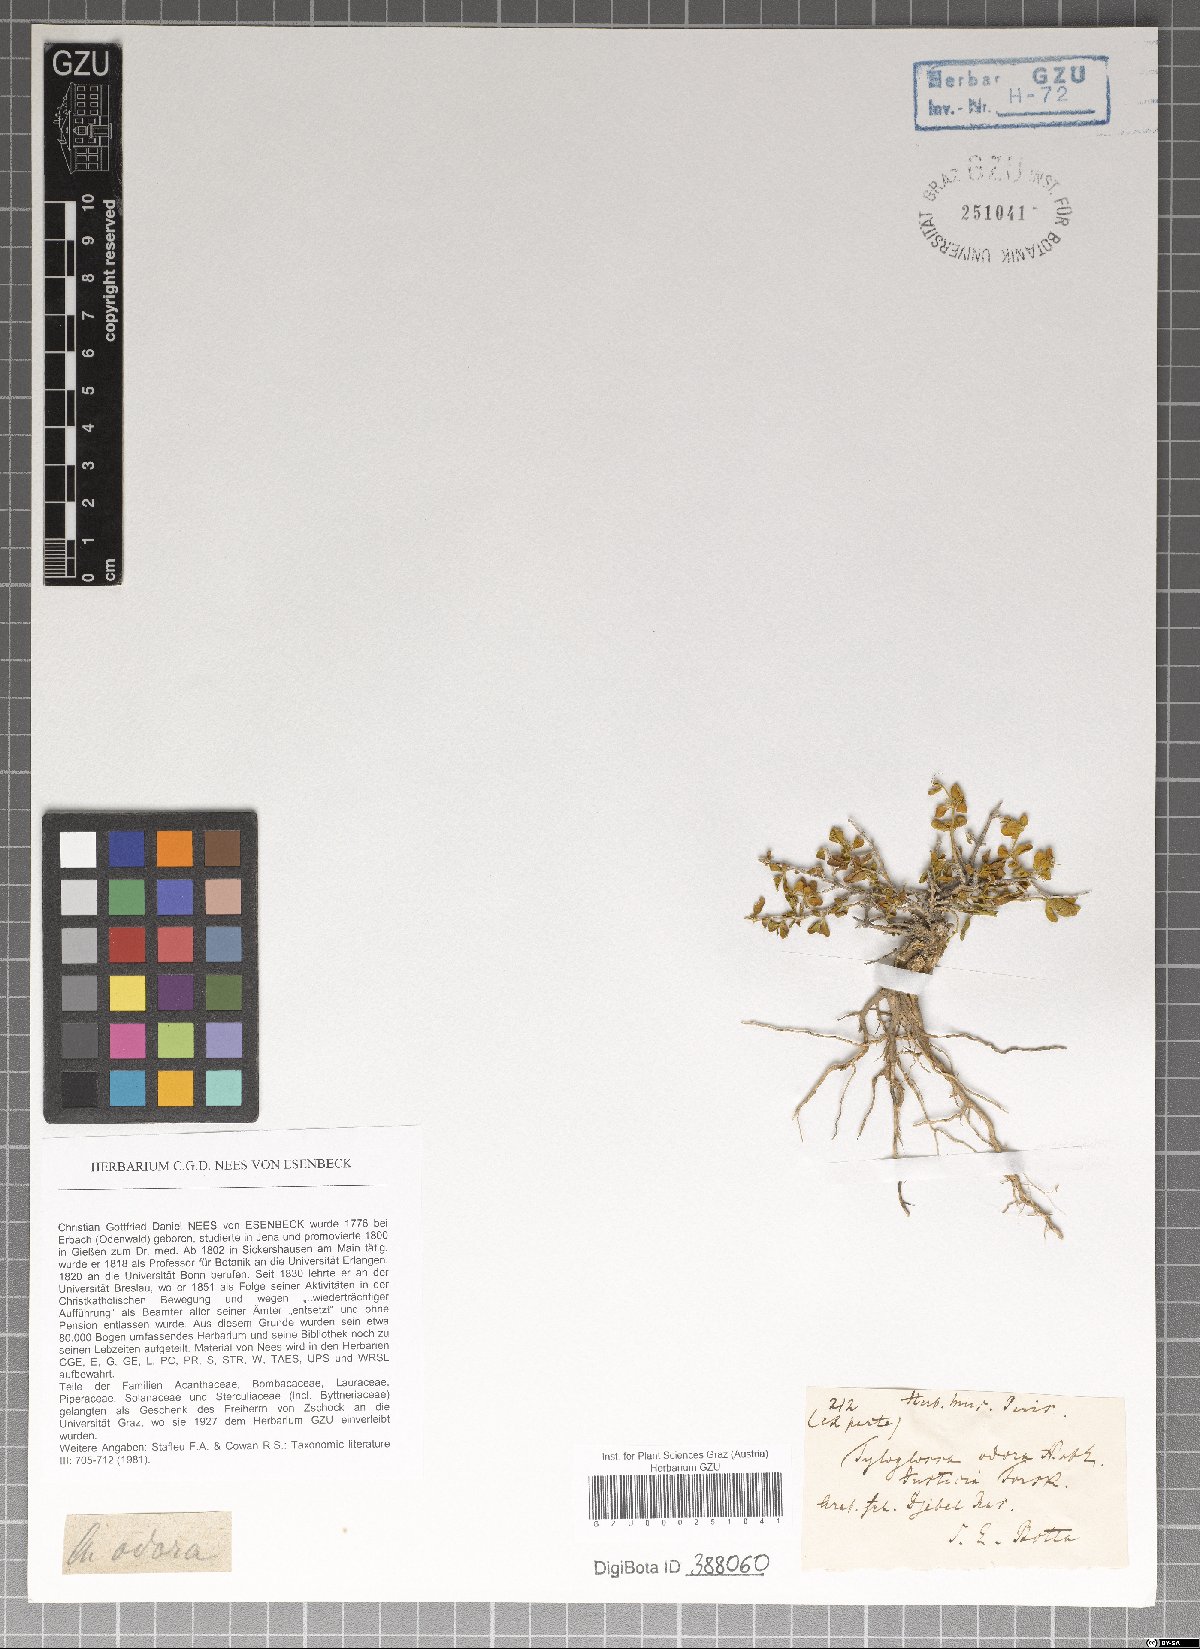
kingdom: Plantae
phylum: Tracheophyta
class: Magnoliopsida
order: Lamiales
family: Acanthaceae
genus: Justicia
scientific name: Justicia odora
